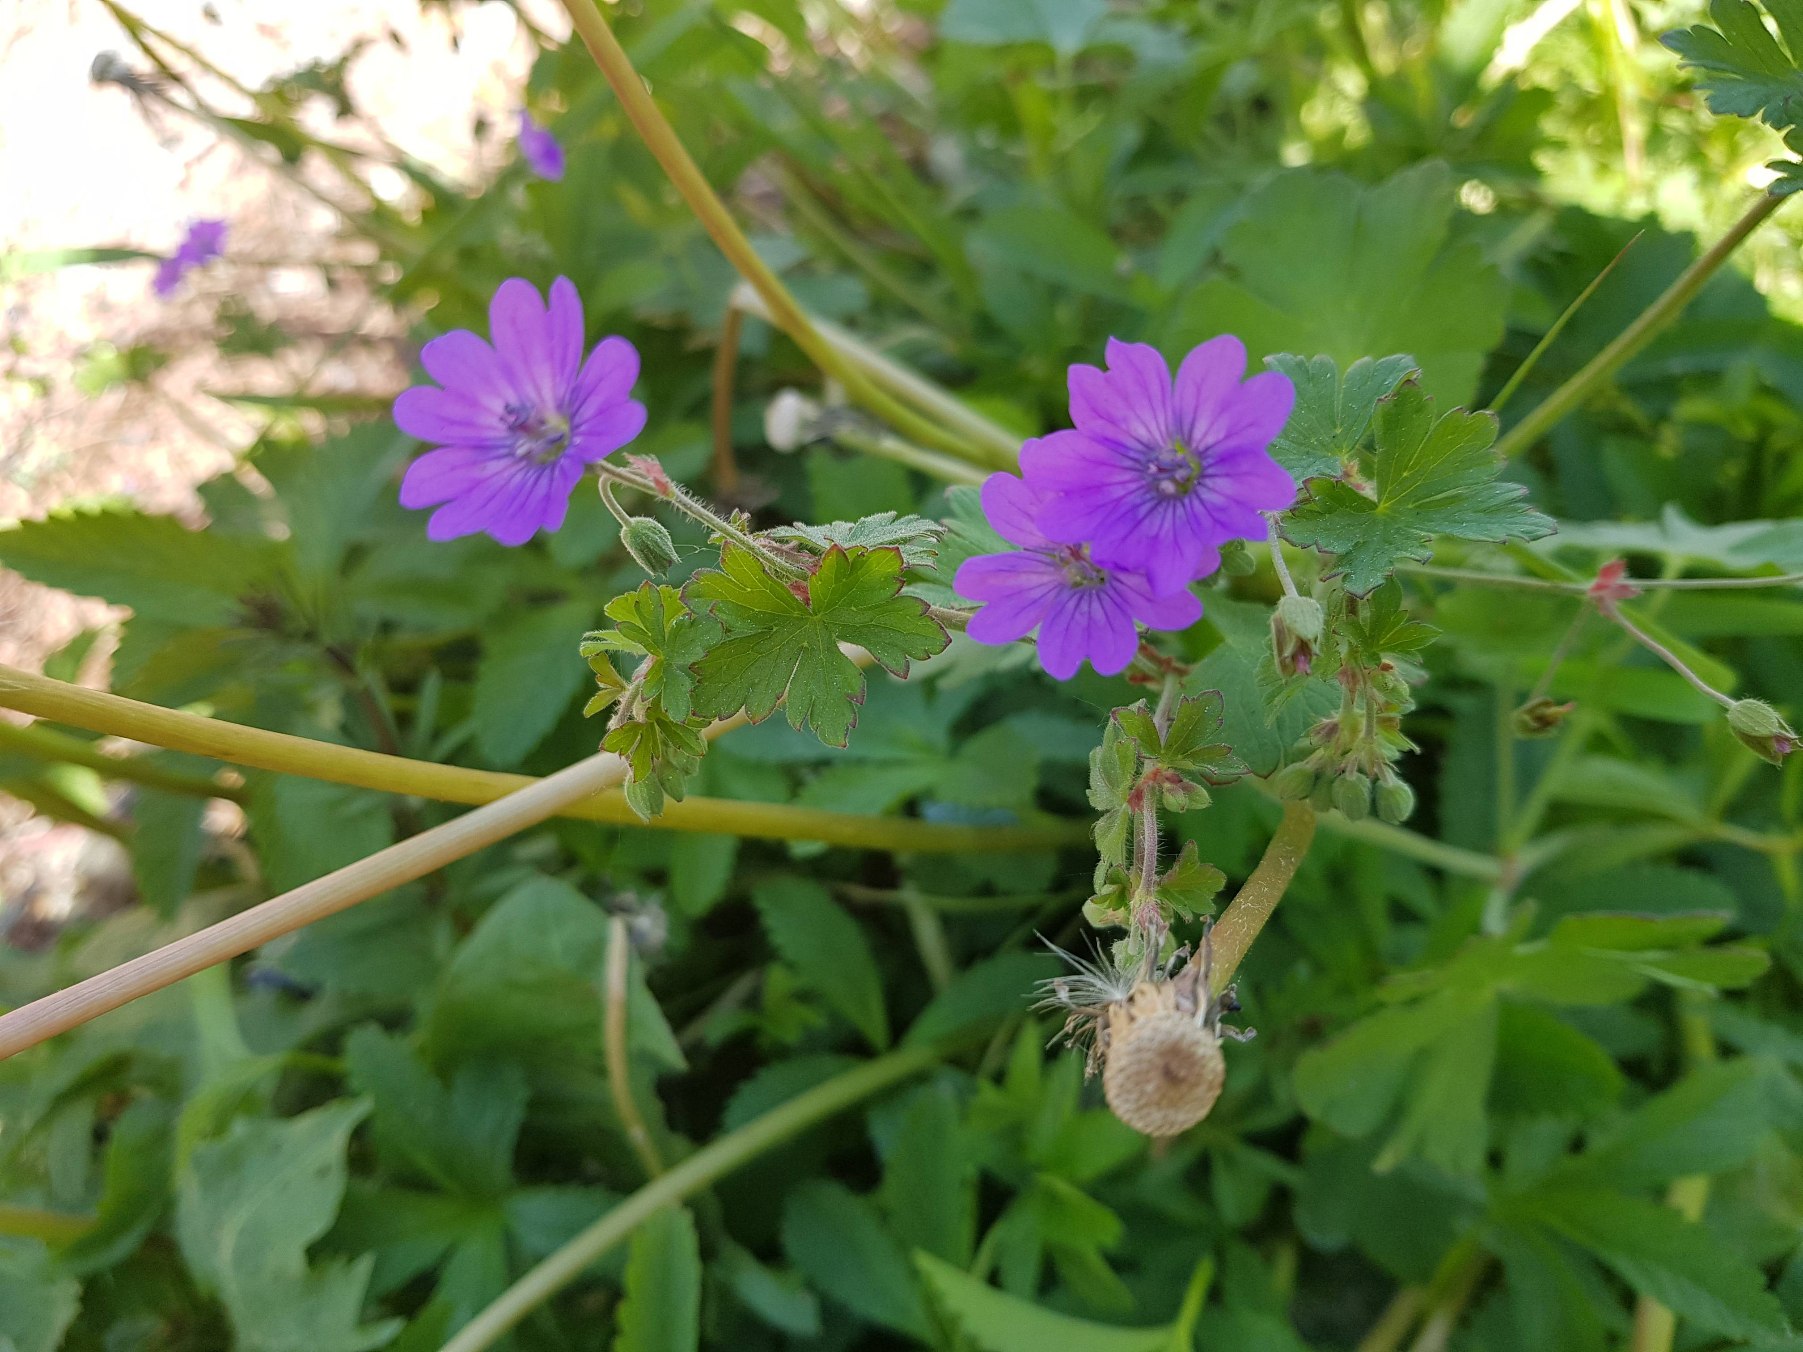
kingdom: Plantae
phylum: Tracheophyta
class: Magnoliopsida
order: Geraniales
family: Geraniaceae
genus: Geranium
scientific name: Geranium pyrenaicum
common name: Pyrenæisk storkenæb
